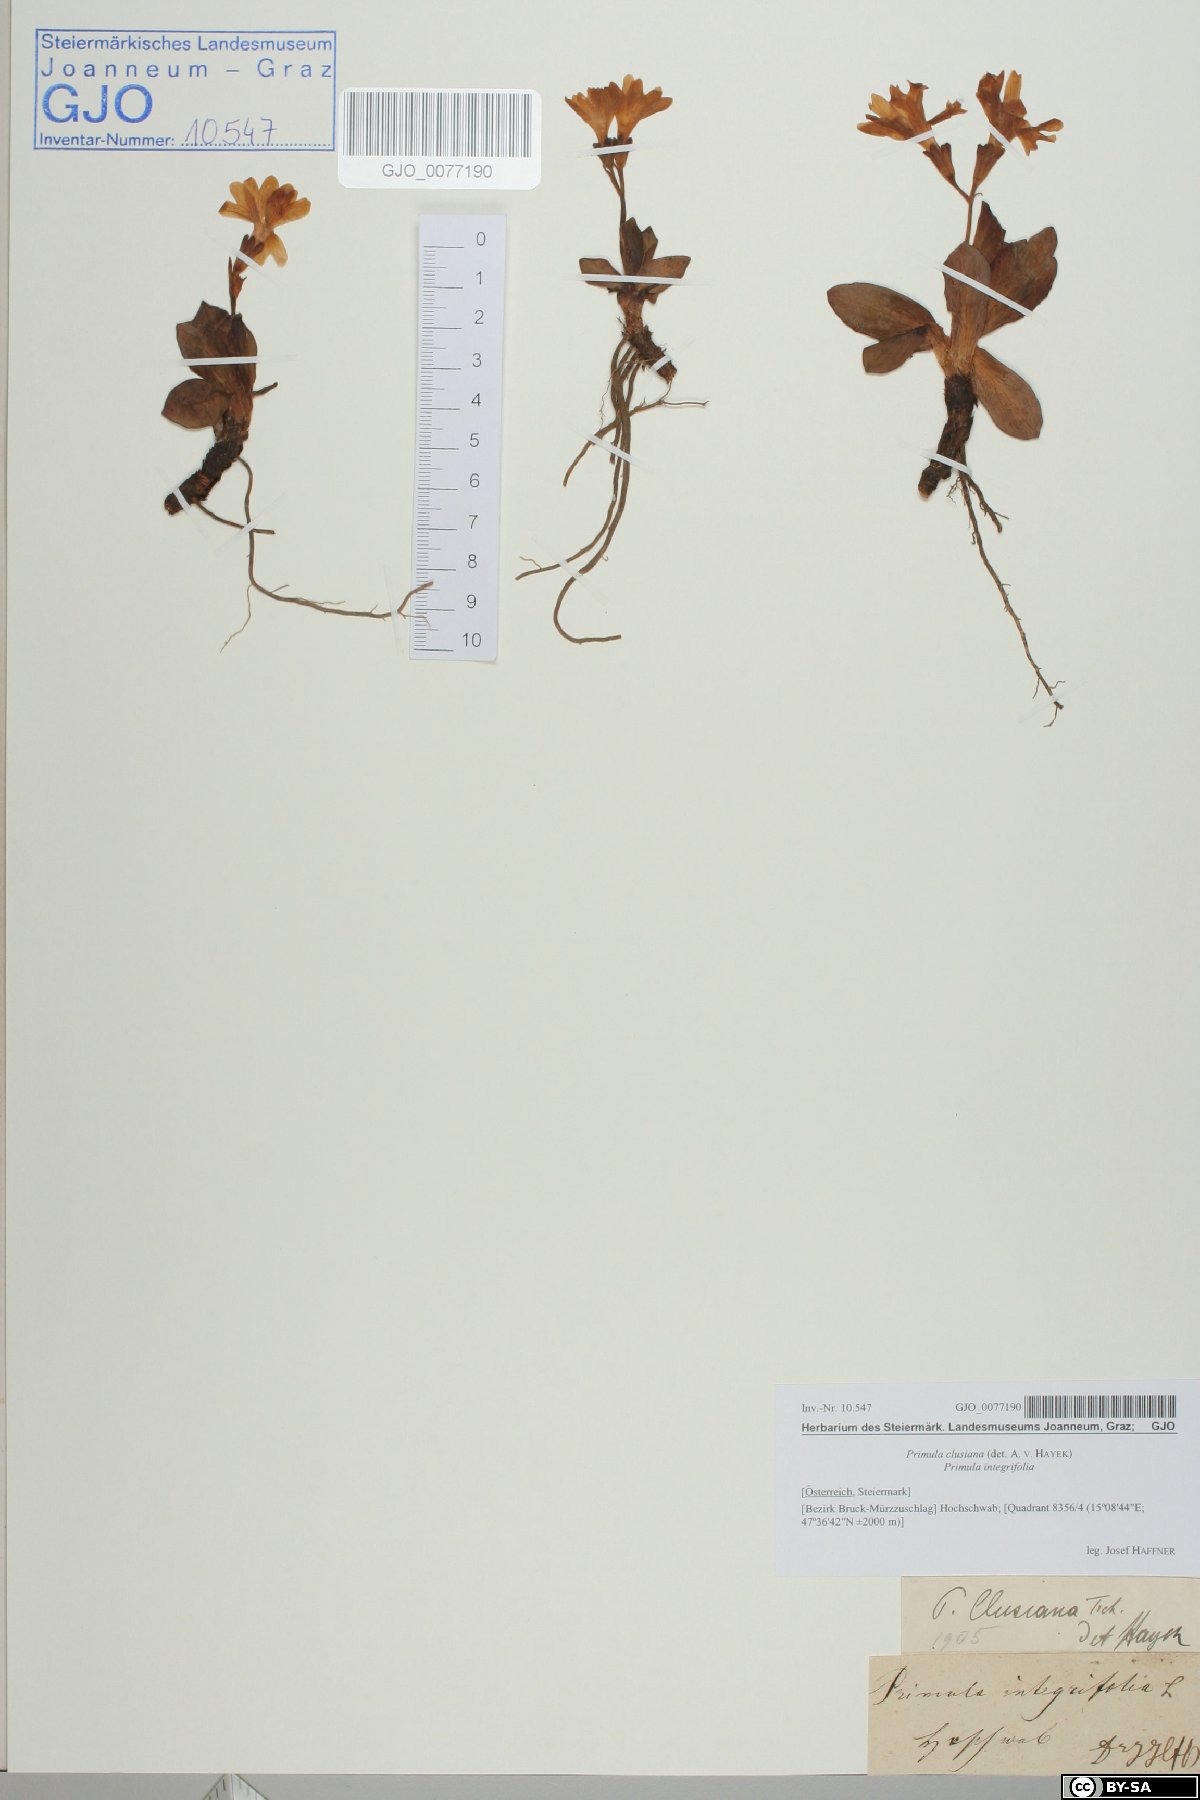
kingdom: Plantae
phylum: Tracheophyta
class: Magnoliopsida
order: Ericales
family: Primulaceae
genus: Primula
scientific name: Primula clusiana
